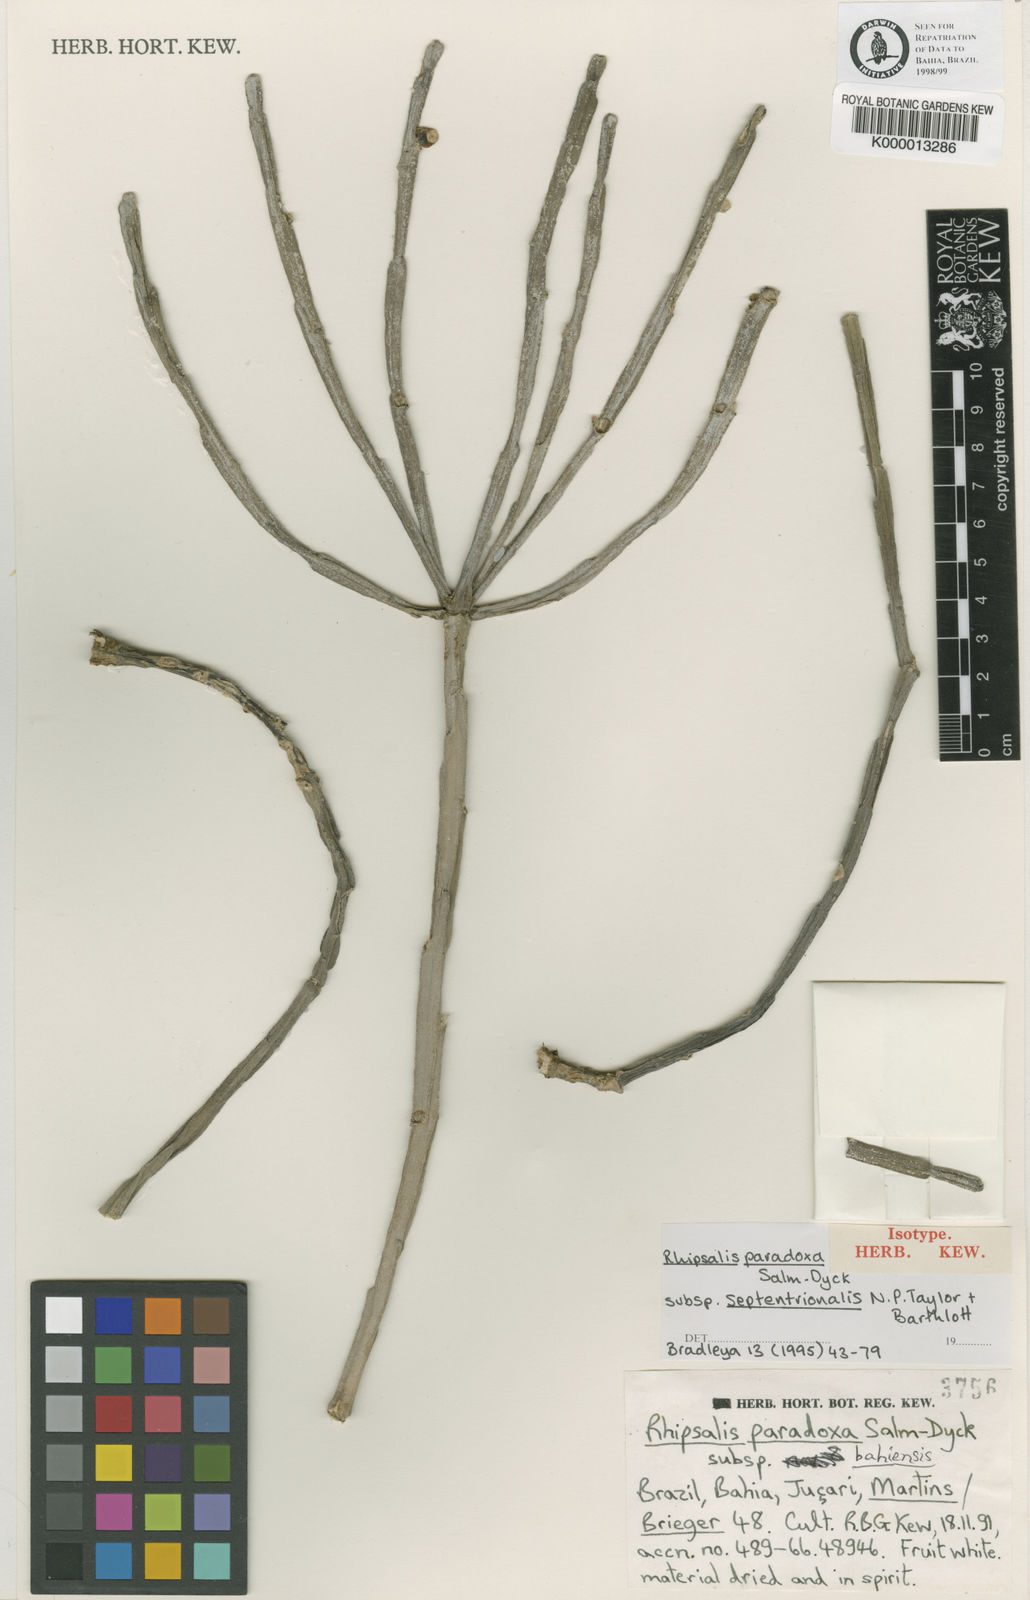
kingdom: Plantae
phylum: Tracheophyta
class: Magnoliopsida
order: Caryophyllales
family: Cactaceae
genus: Rhipsalis
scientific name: Rhipsalis paradoxa
